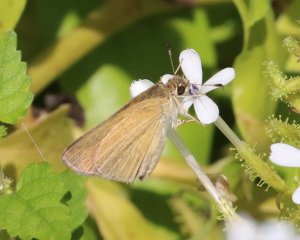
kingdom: Animalia
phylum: Arthropoda
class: Insecta
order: Lepidoptera
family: Hesperiidae
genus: Nastra
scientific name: Nastra julia
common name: Julia's Skipper
